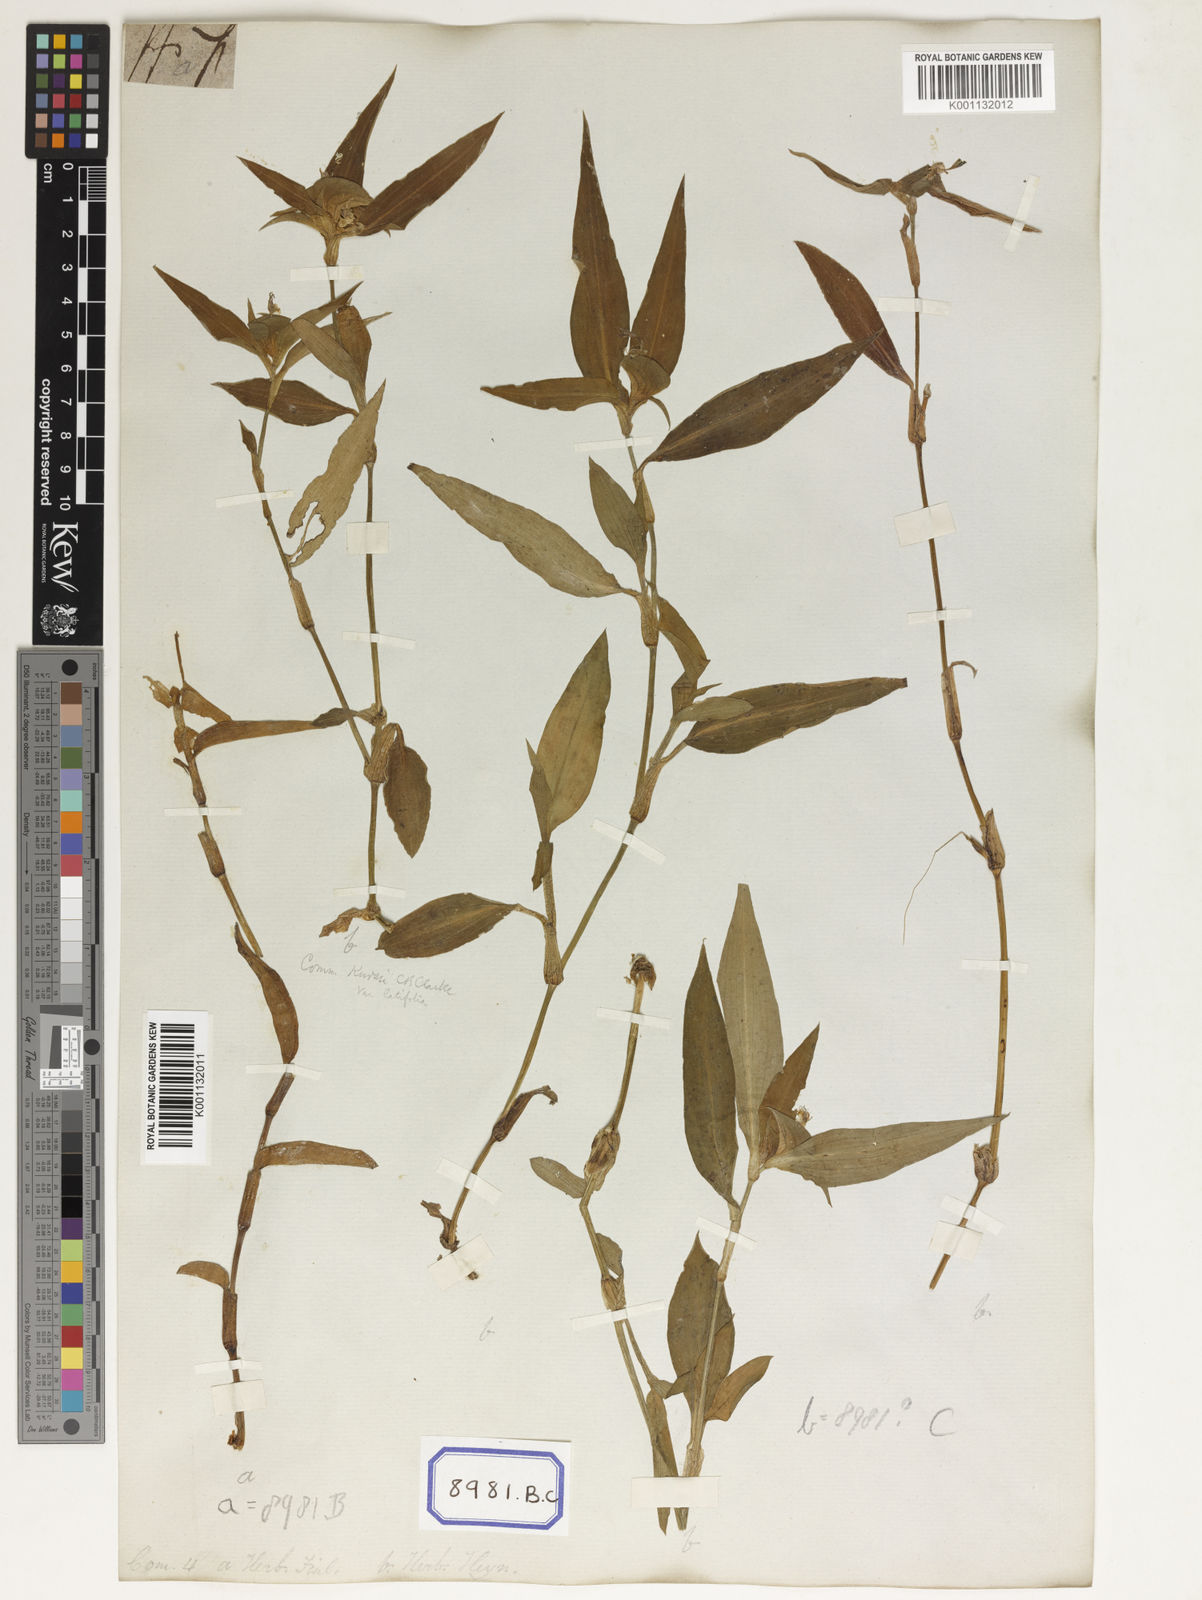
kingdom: Plantae
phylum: Tracheophyta
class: Liliopsida
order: Commelinales
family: Commelinaceae
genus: Commelina
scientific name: Commelina undulata
